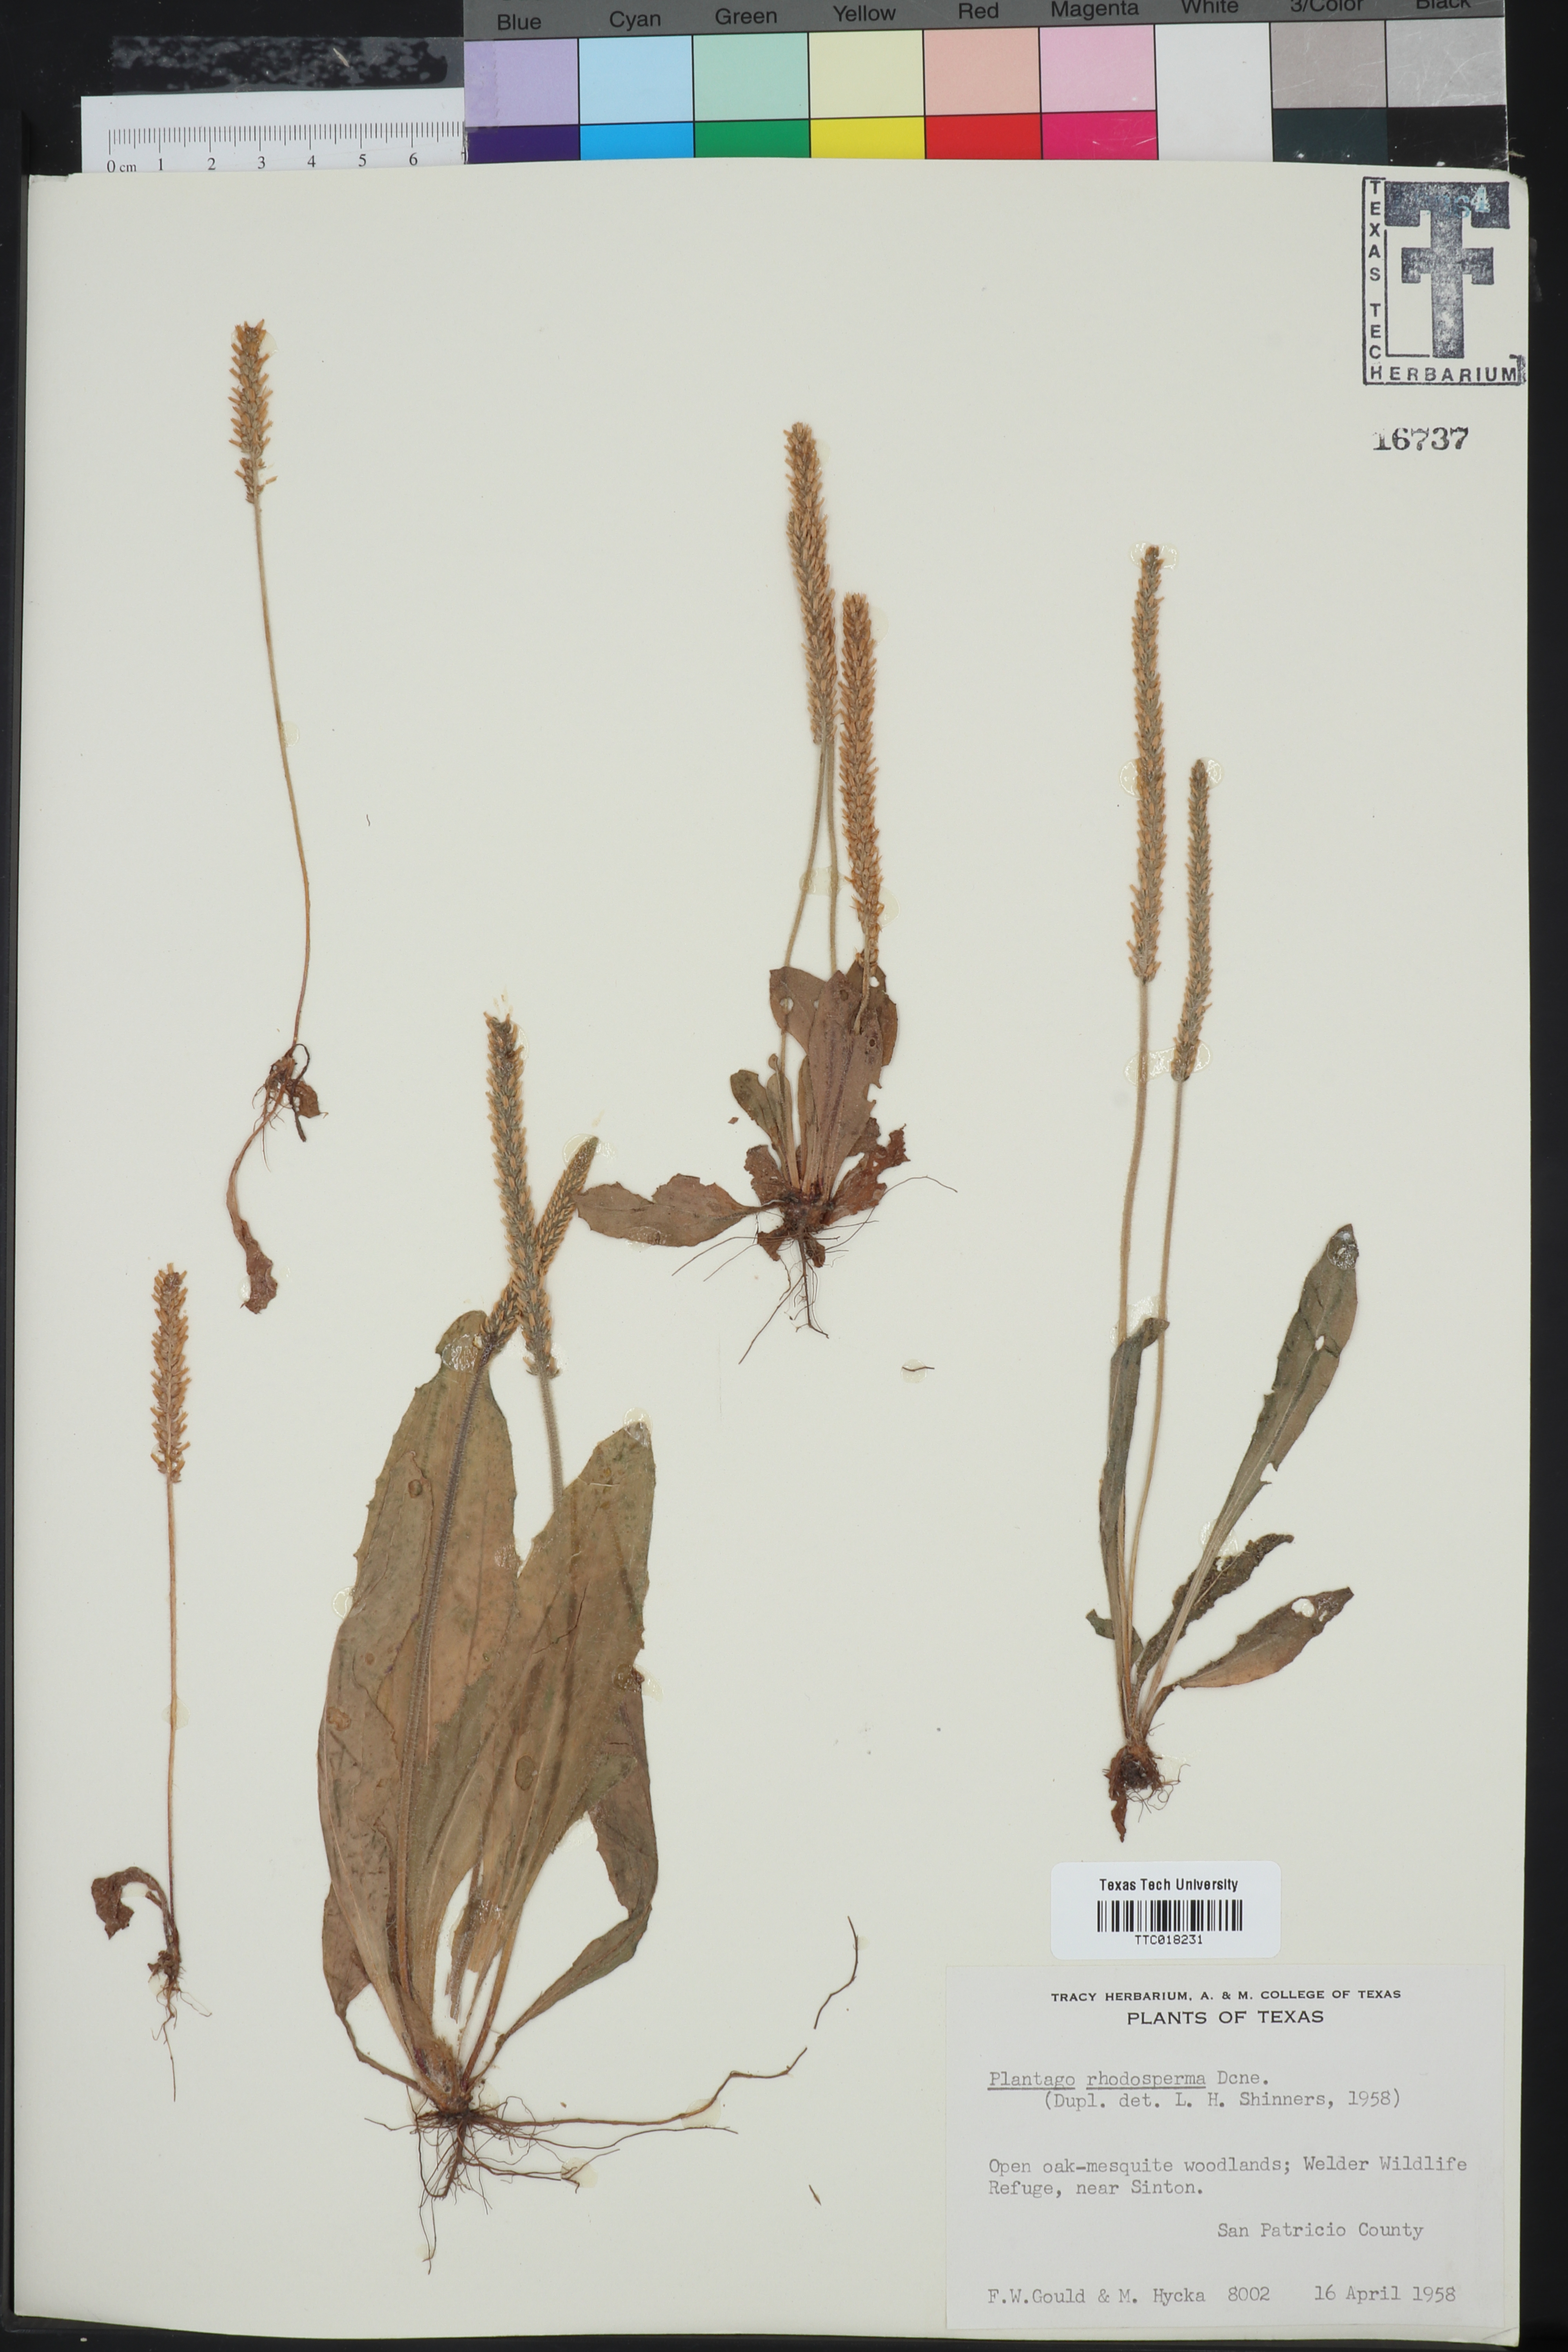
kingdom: Plantae
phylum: Tracheophyta
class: Magnoliopsida
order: Lamiales
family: Plantaginaceae
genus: Plantago
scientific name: Plantago rhodosperma
